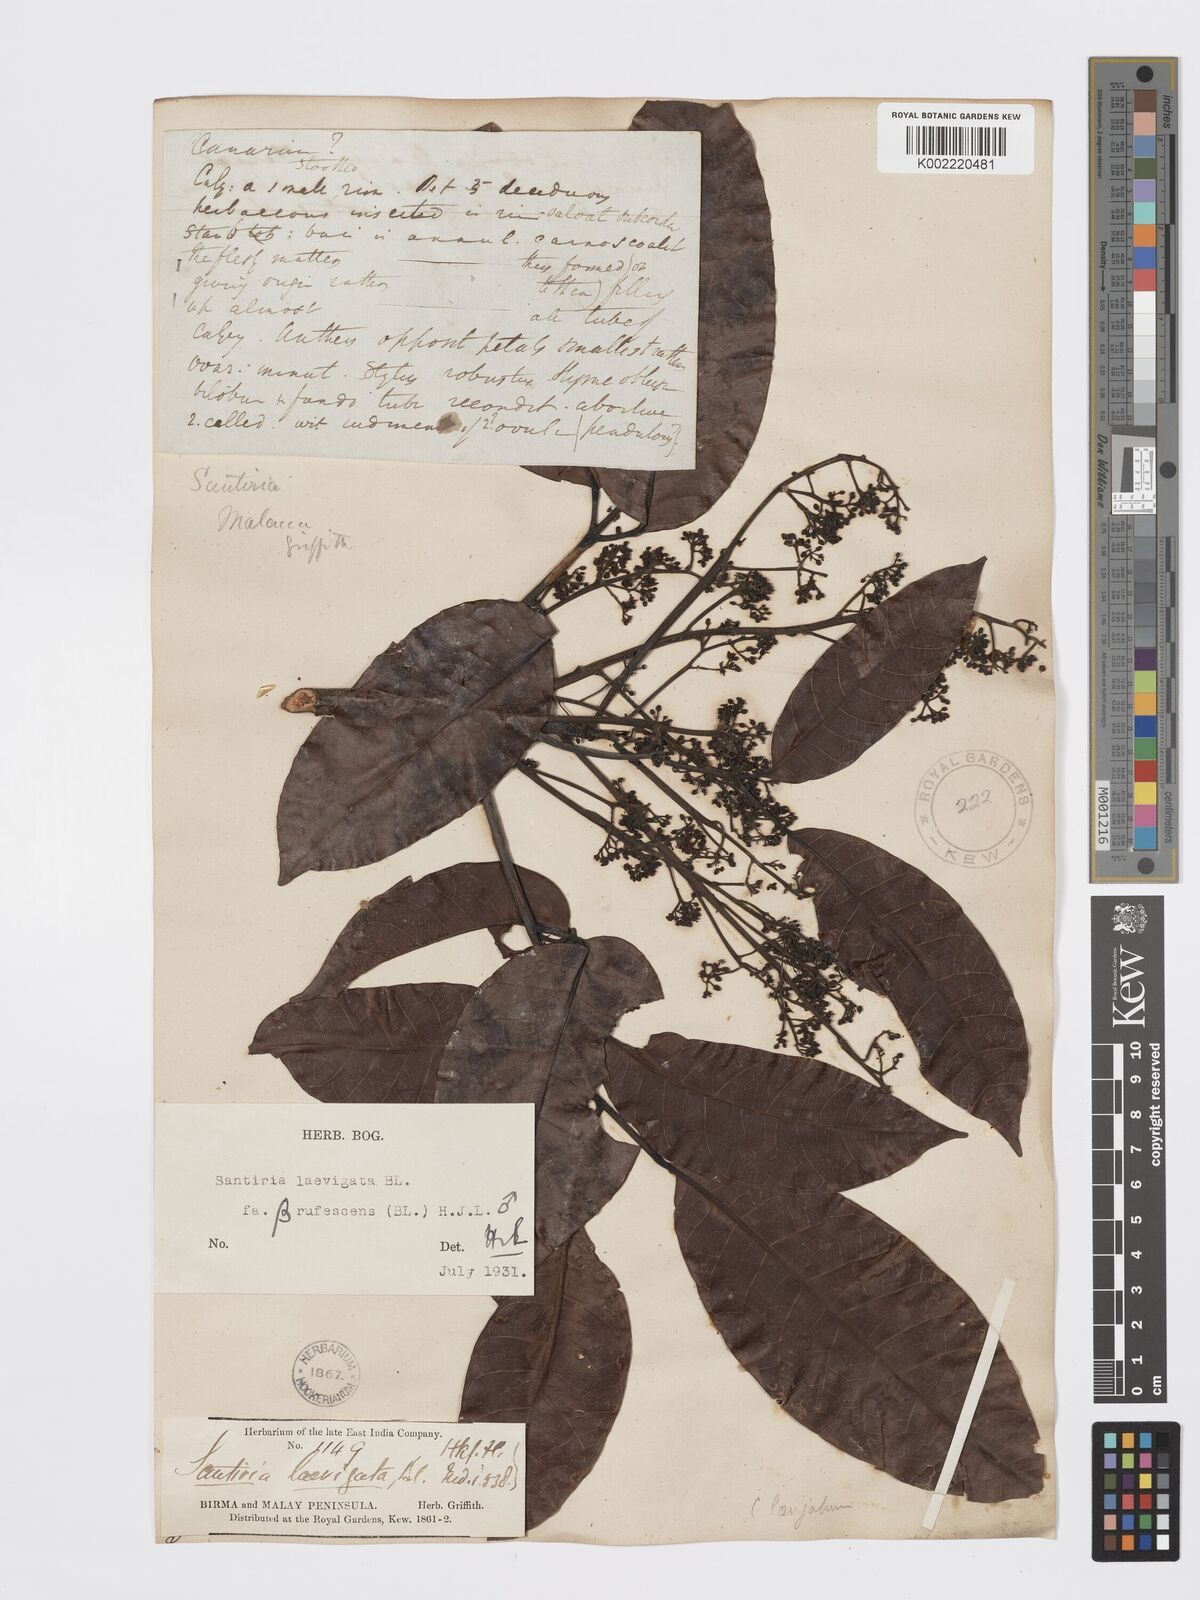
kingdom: Plantae
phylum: Tracheophyta
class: Magnoliopsida
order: Sapindales
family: Burseraceae
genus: Santiria
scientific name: Santiria laevigata
